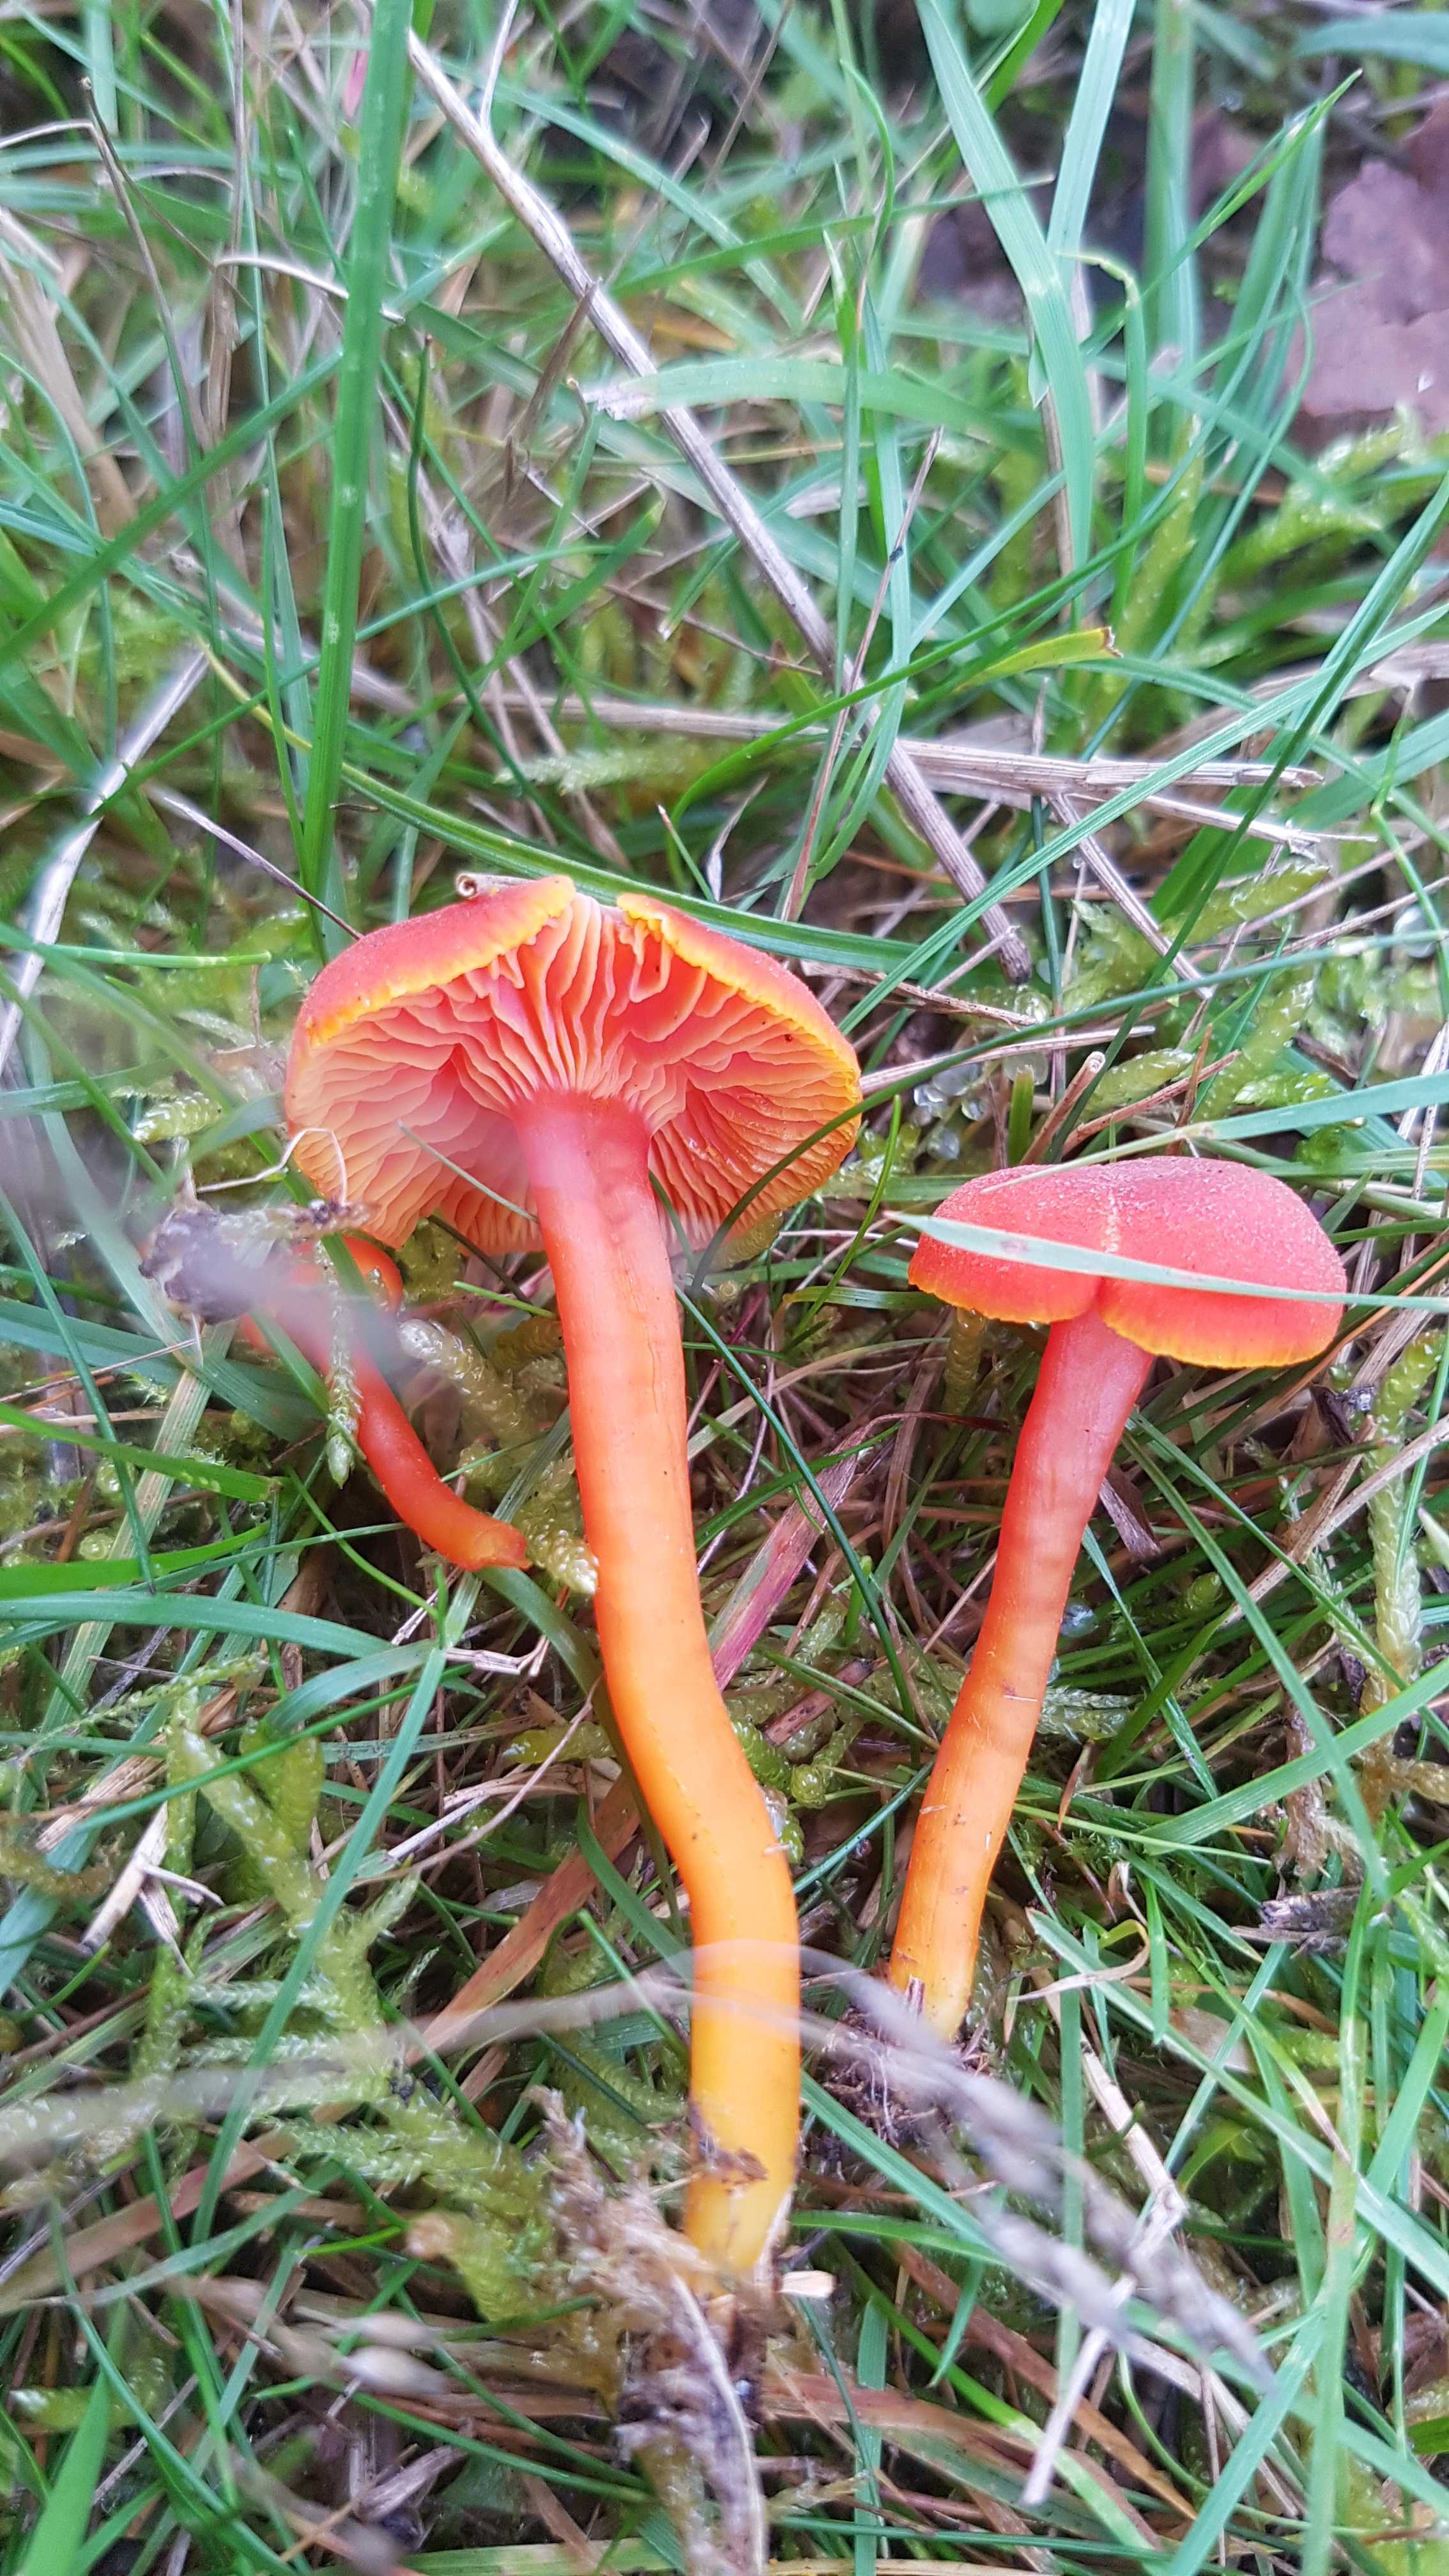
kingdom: Fungi
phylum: Basidiomycota
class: Agaricomycetes
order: Agaricales
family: Hygrophoraceae
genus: Hygrocybe
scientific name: Hygrocybe miniata
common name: mønje-vokshat
